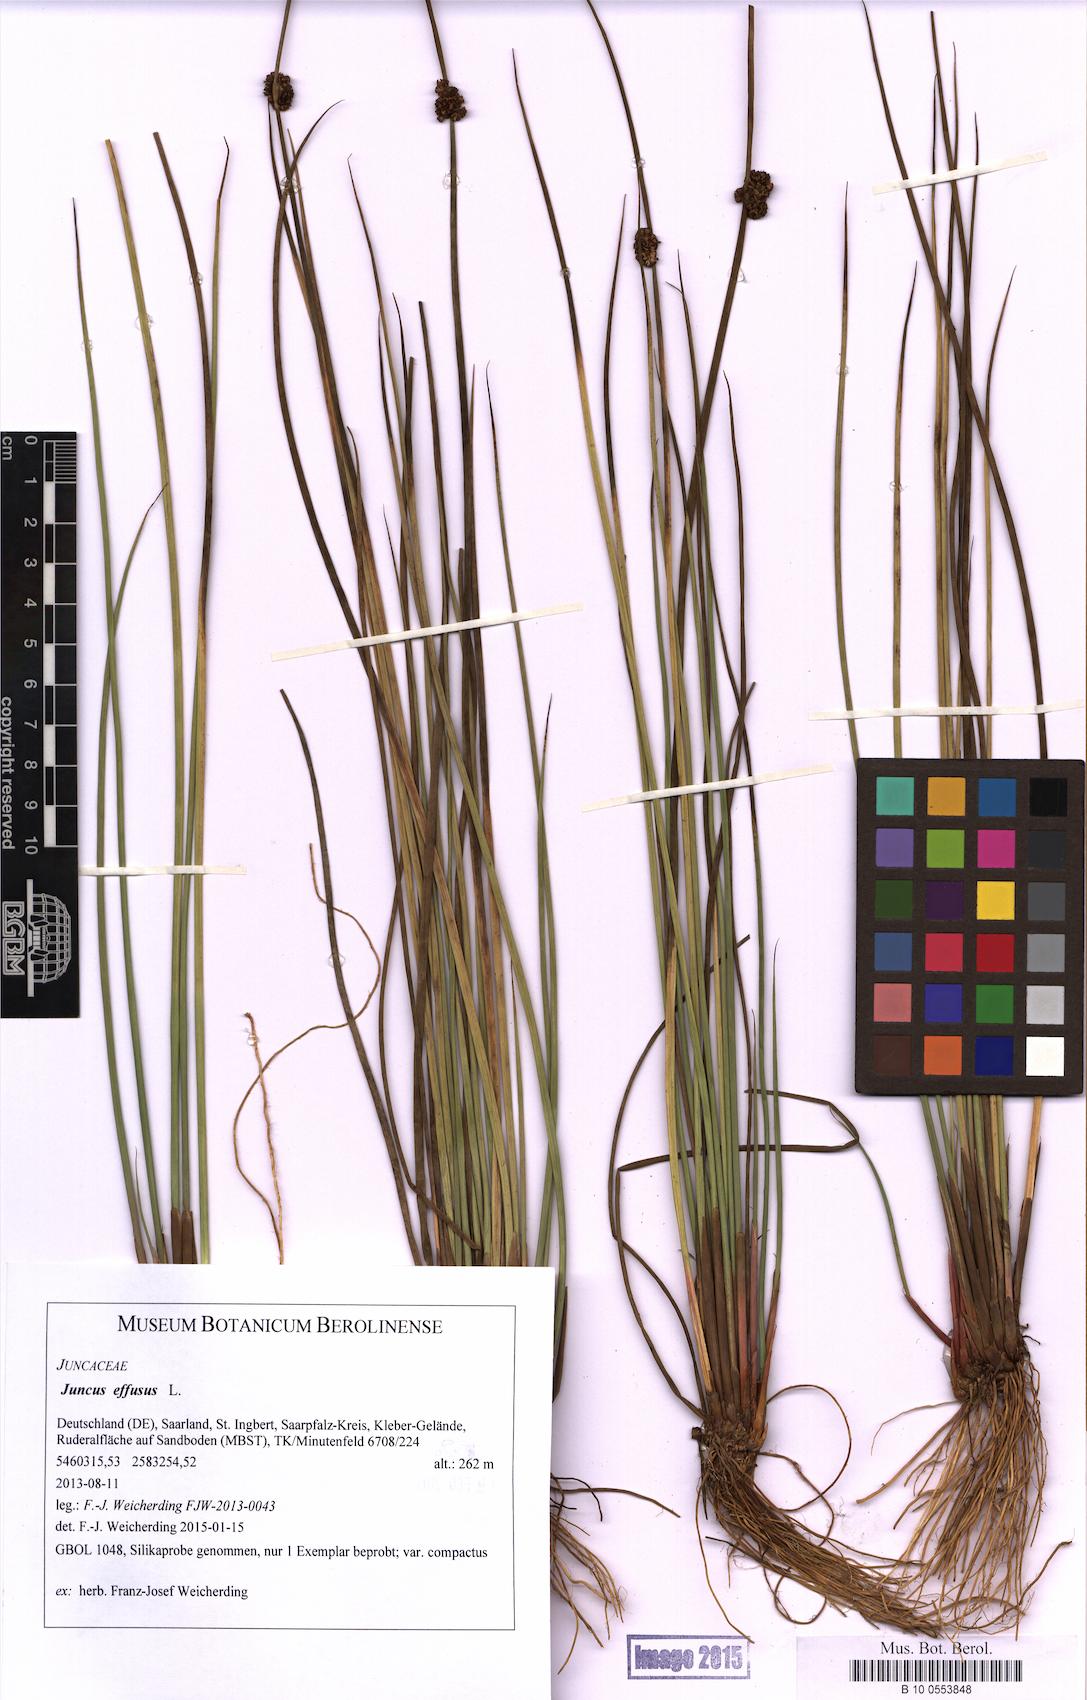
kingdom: Plantae
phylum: Tracheophyta
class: Liliopsida
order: Poales
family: Juncaceae
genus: Juncus
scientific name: Juncus effusus
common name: Soft rush
